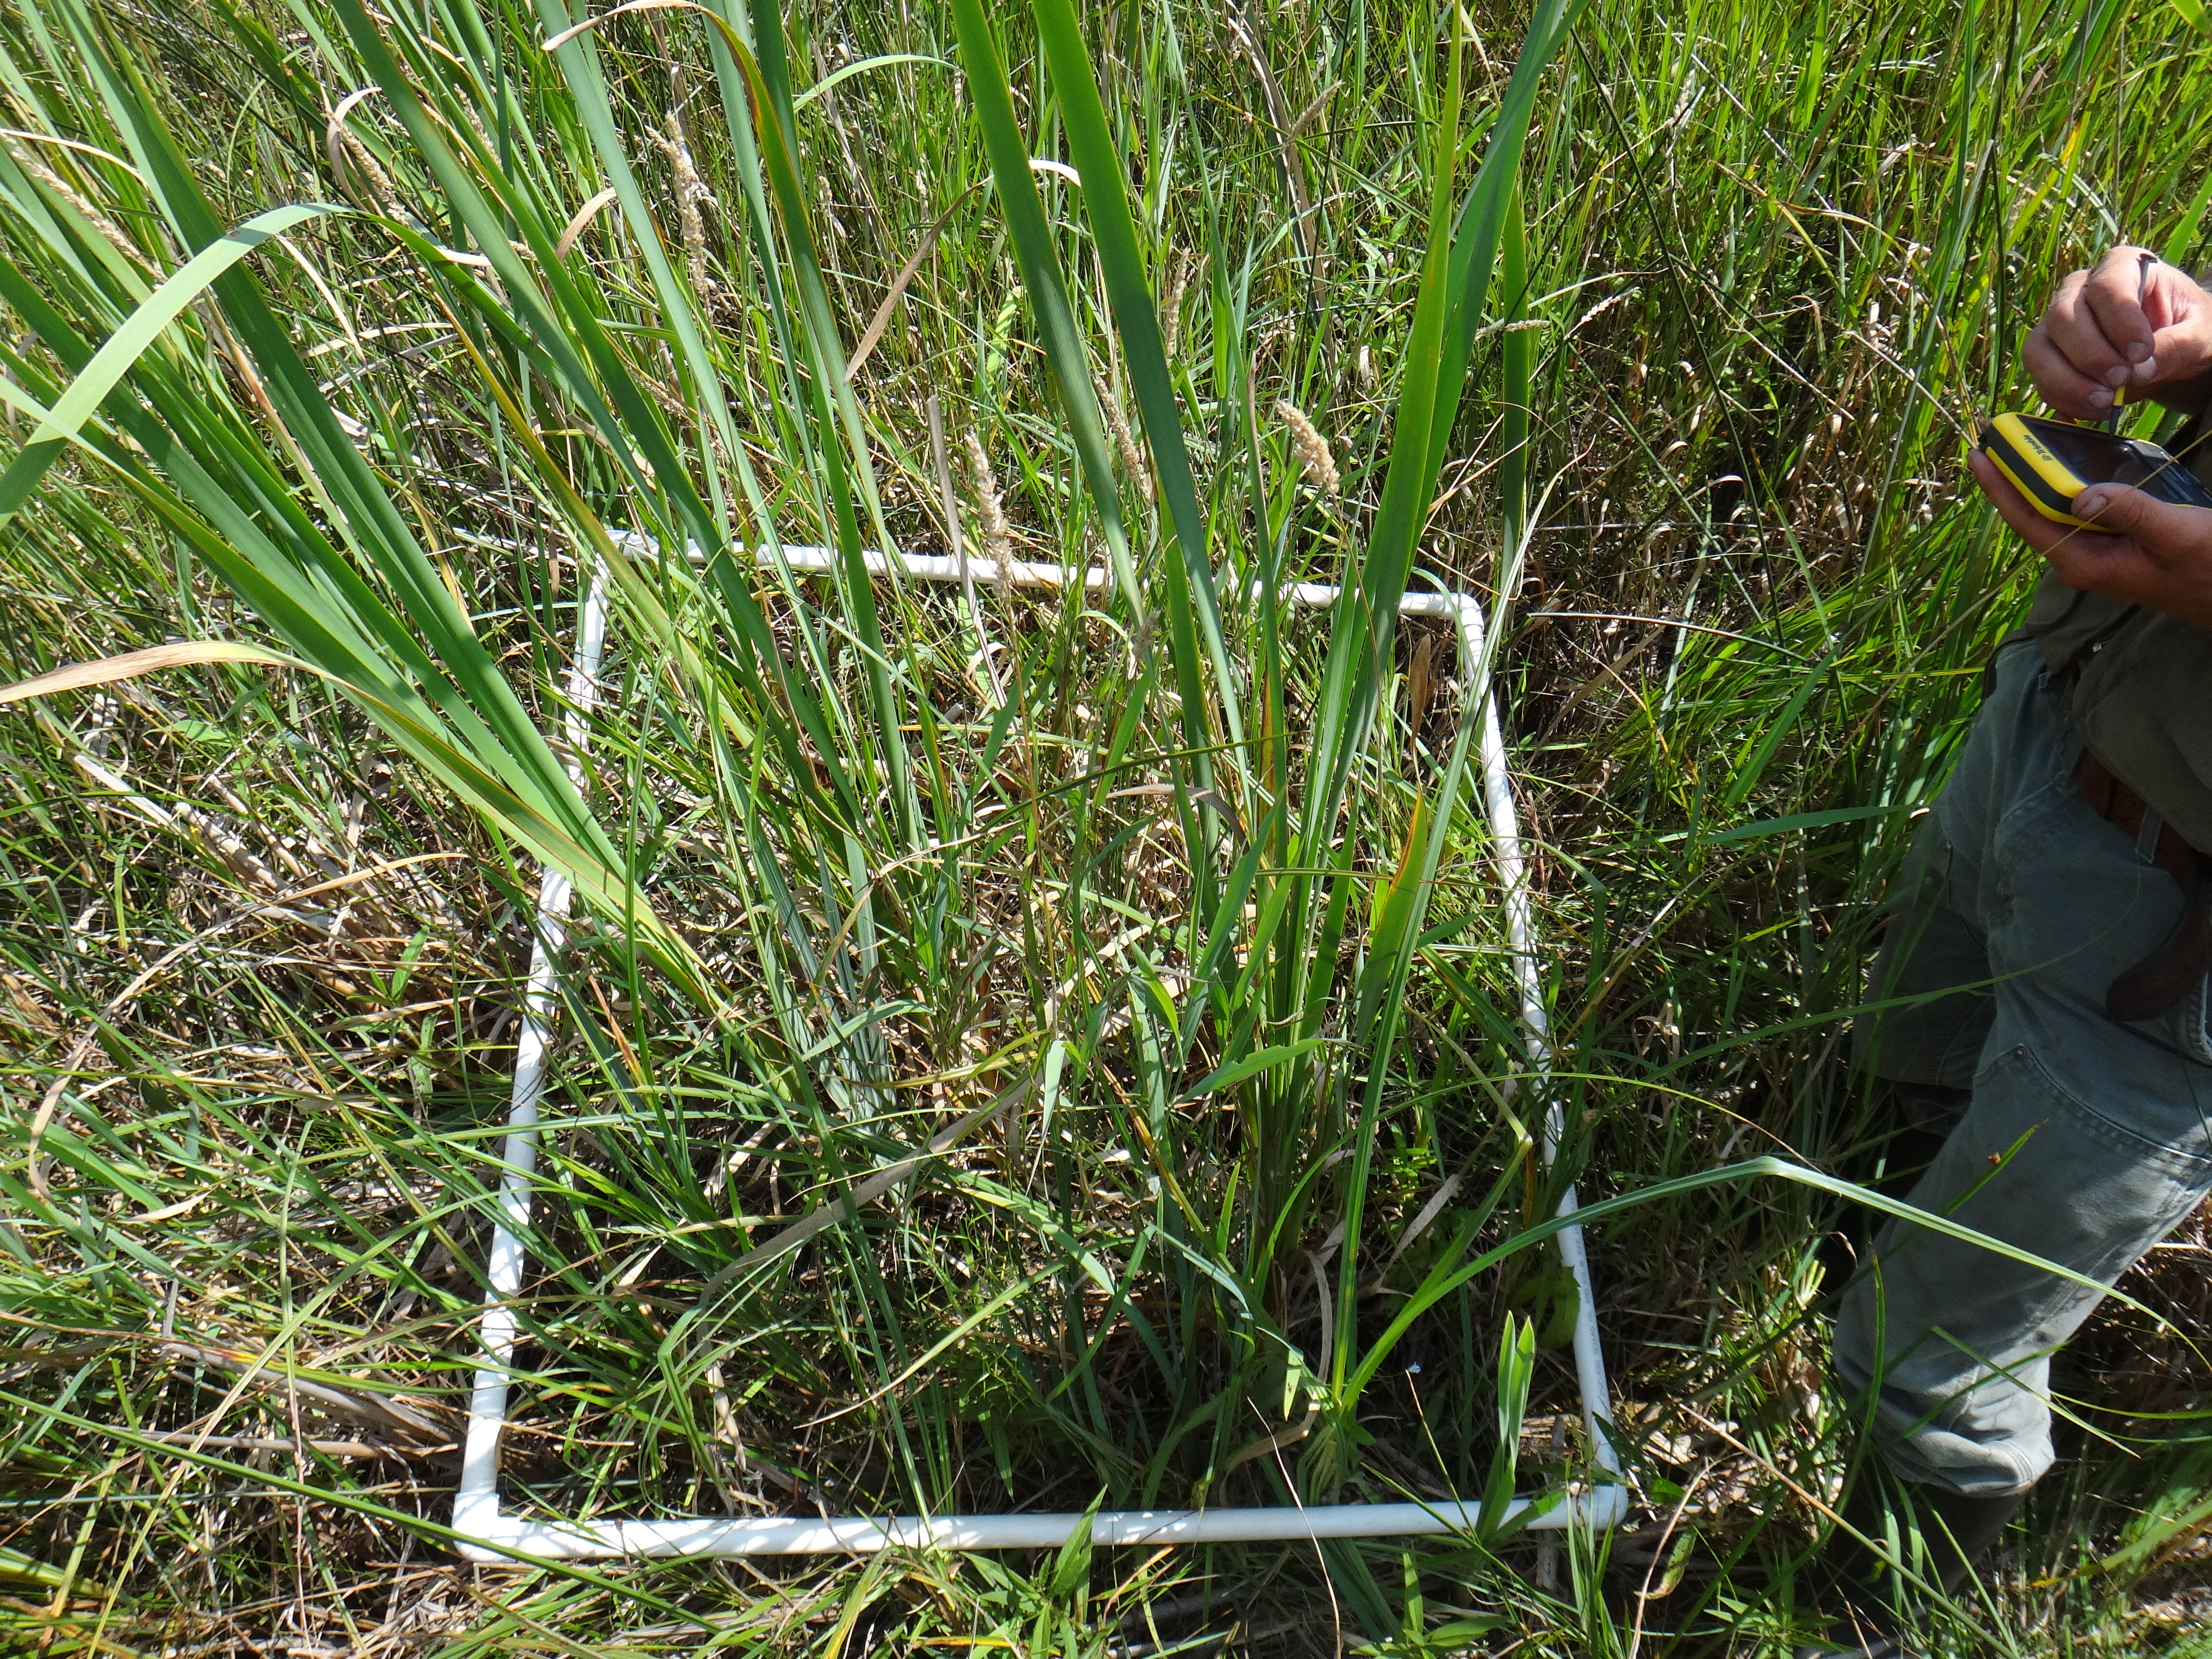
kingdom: Plantae
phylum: Tracheophyta
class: Magnoliopsida
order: Asterales
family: Asteraceae
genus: Eupatorium
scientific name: Eupatorium perfoliatum
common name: Boneset
